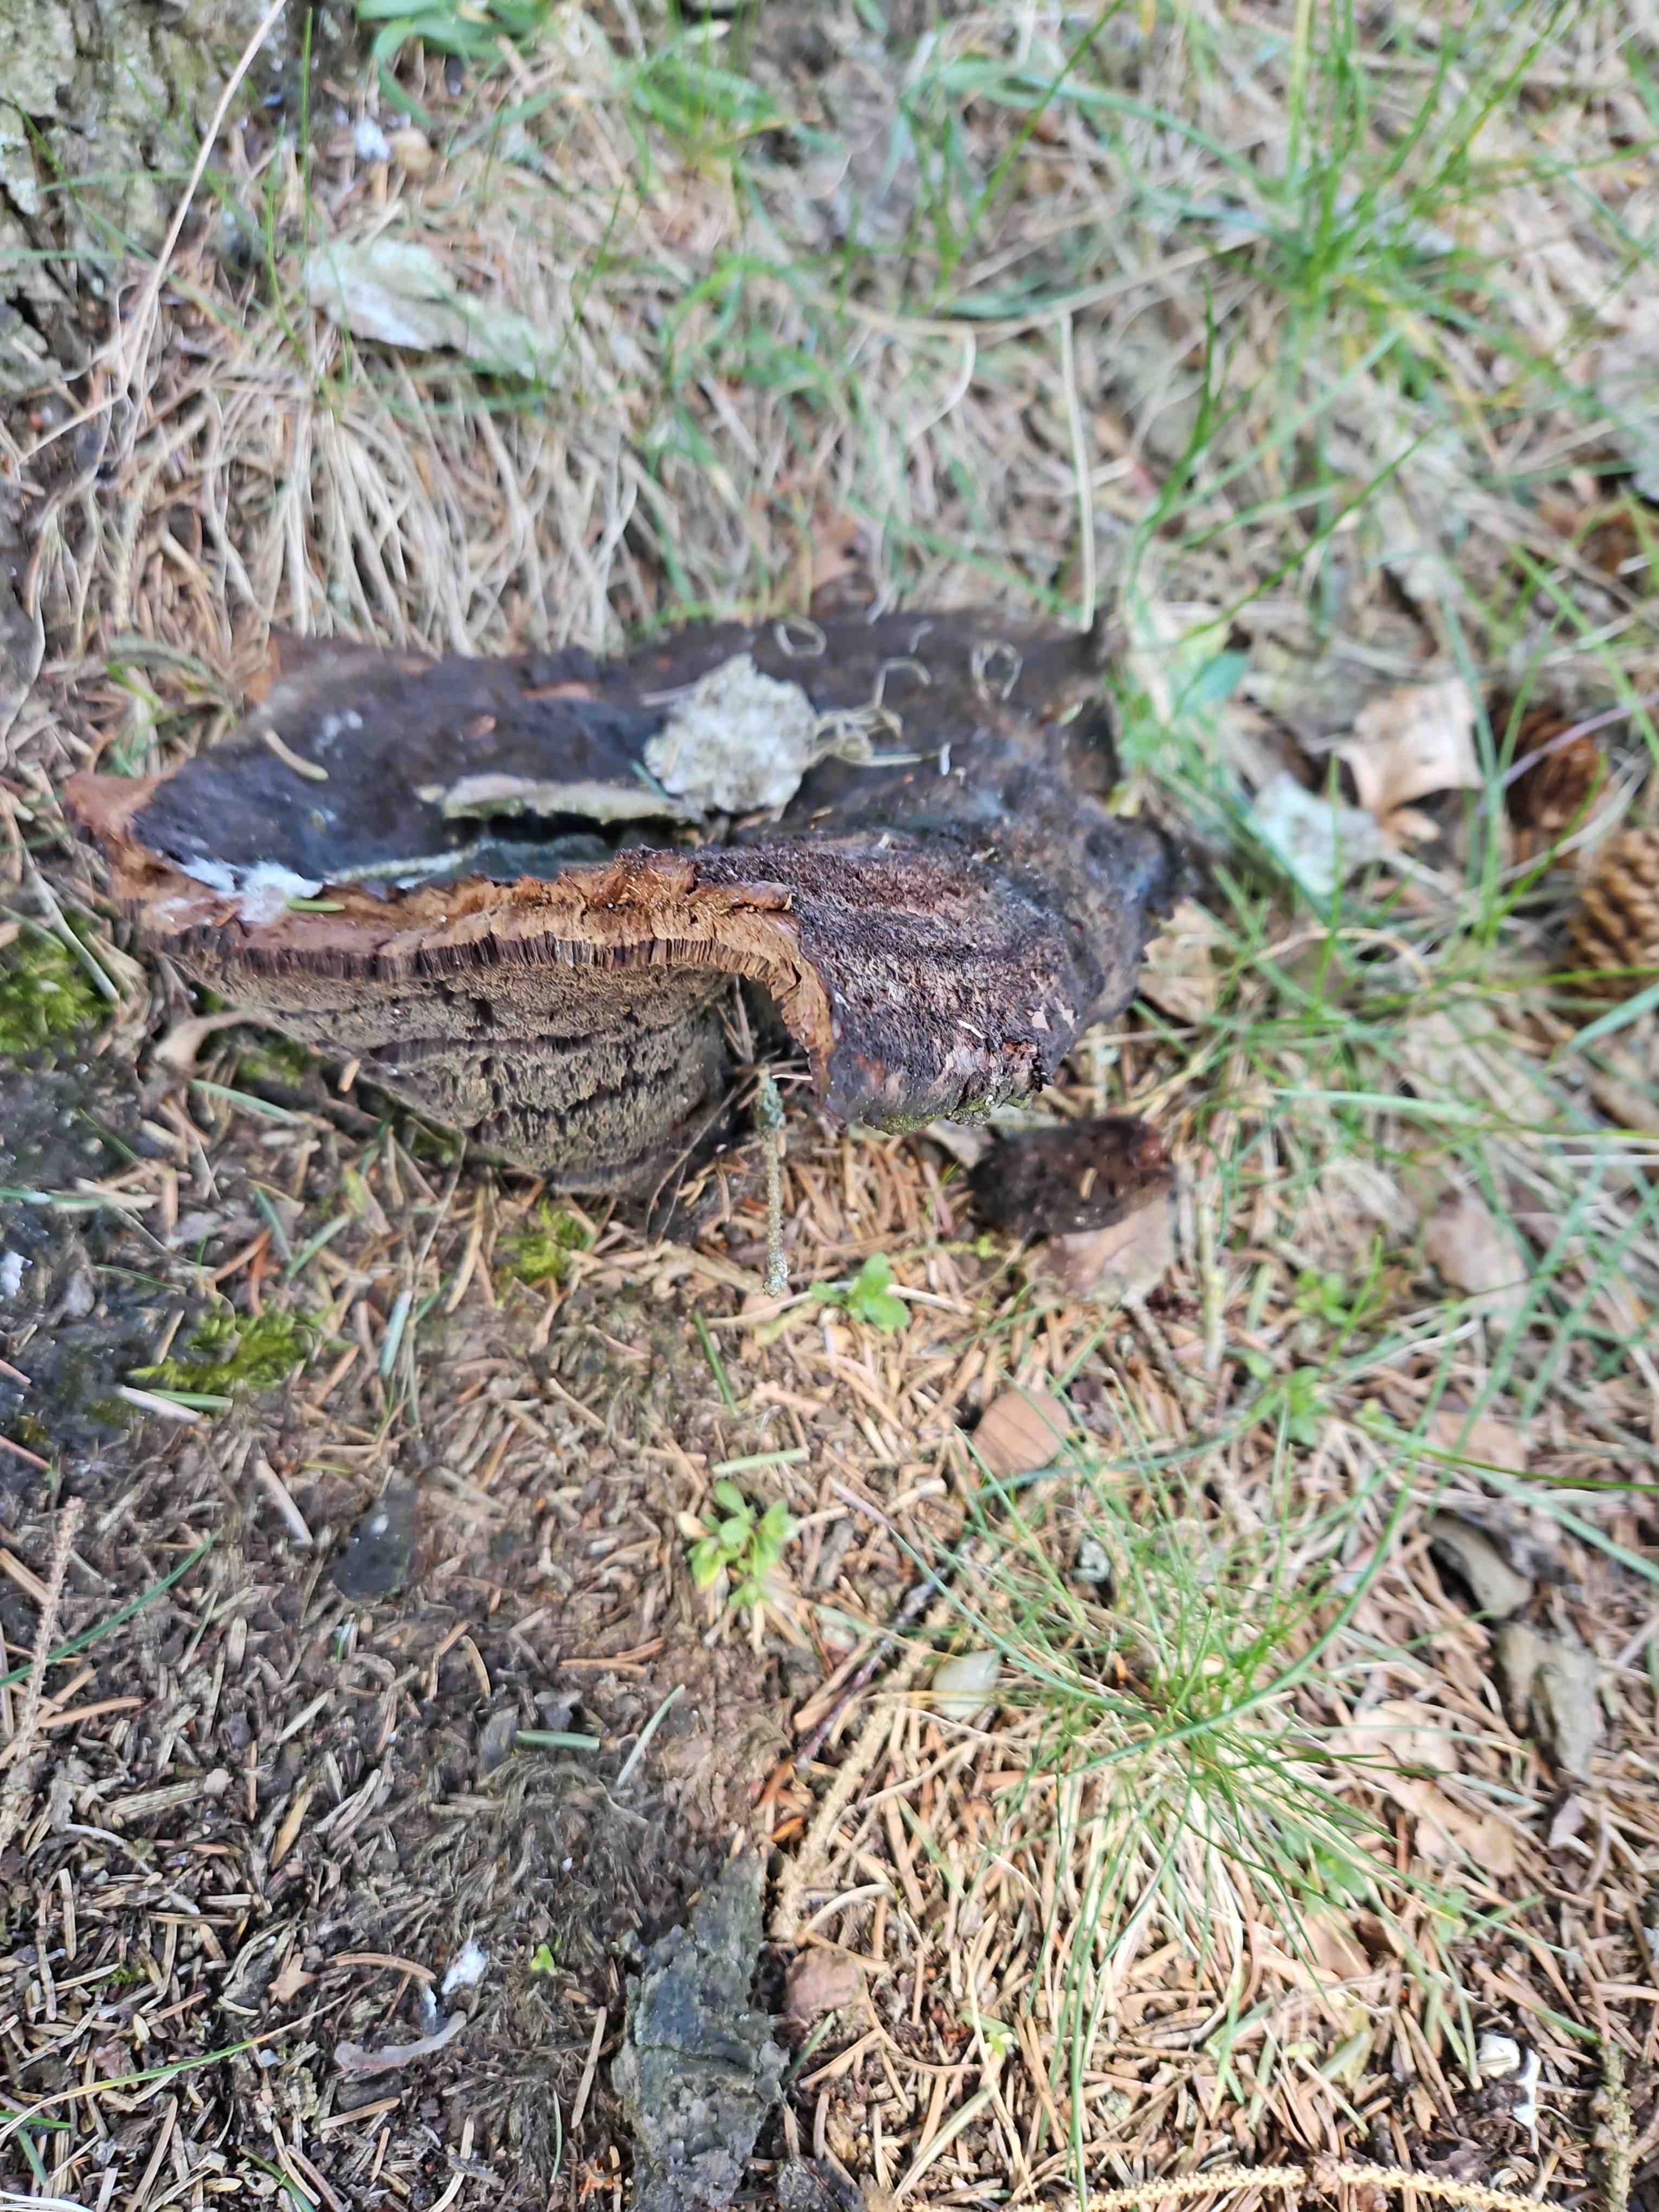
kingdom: Fungi
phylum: Basidiomycota
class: Agaricomycetes
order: Polyporales
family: Laetiporaceae
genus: Phaeolus
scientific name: Phaeolus schweinitzii
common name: brunporesvamp
